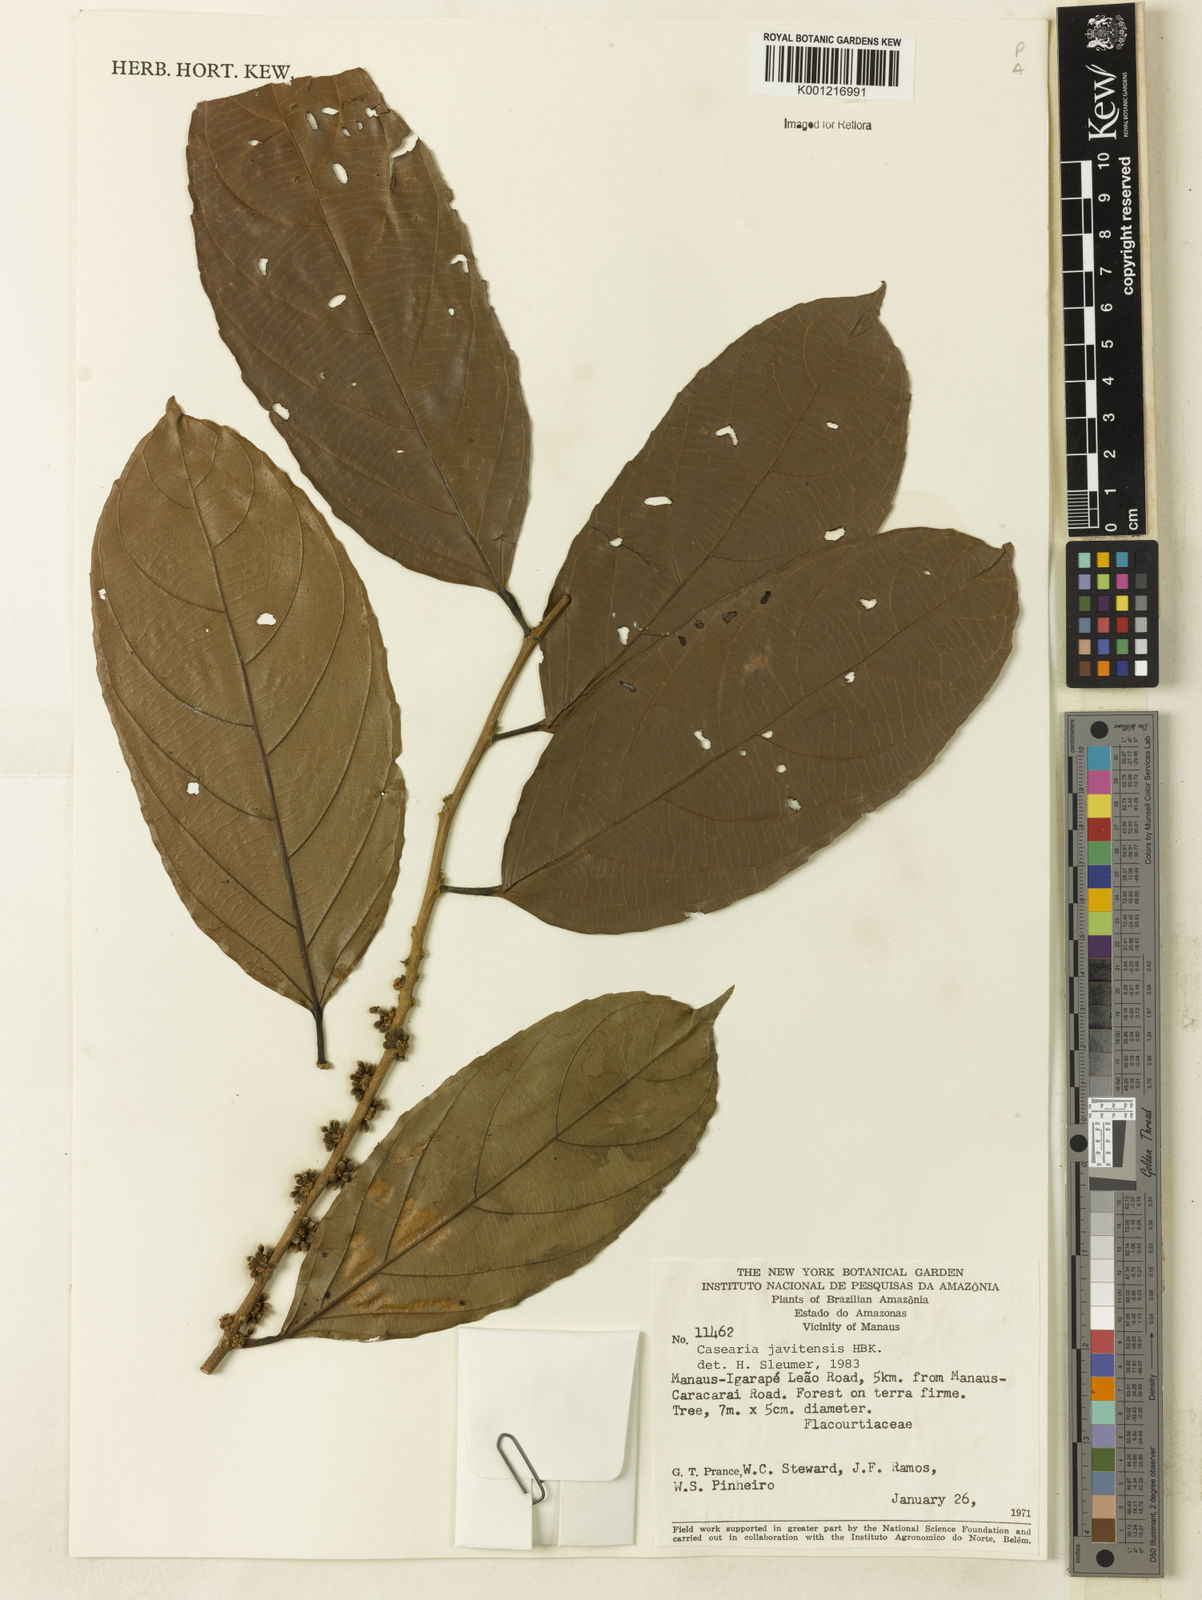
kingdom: Plantae
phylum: Tracheophyta
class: Magnoliopsida
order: Malpighiales
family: Salicaceae
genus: Piparea
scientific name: Piparea multiflora
